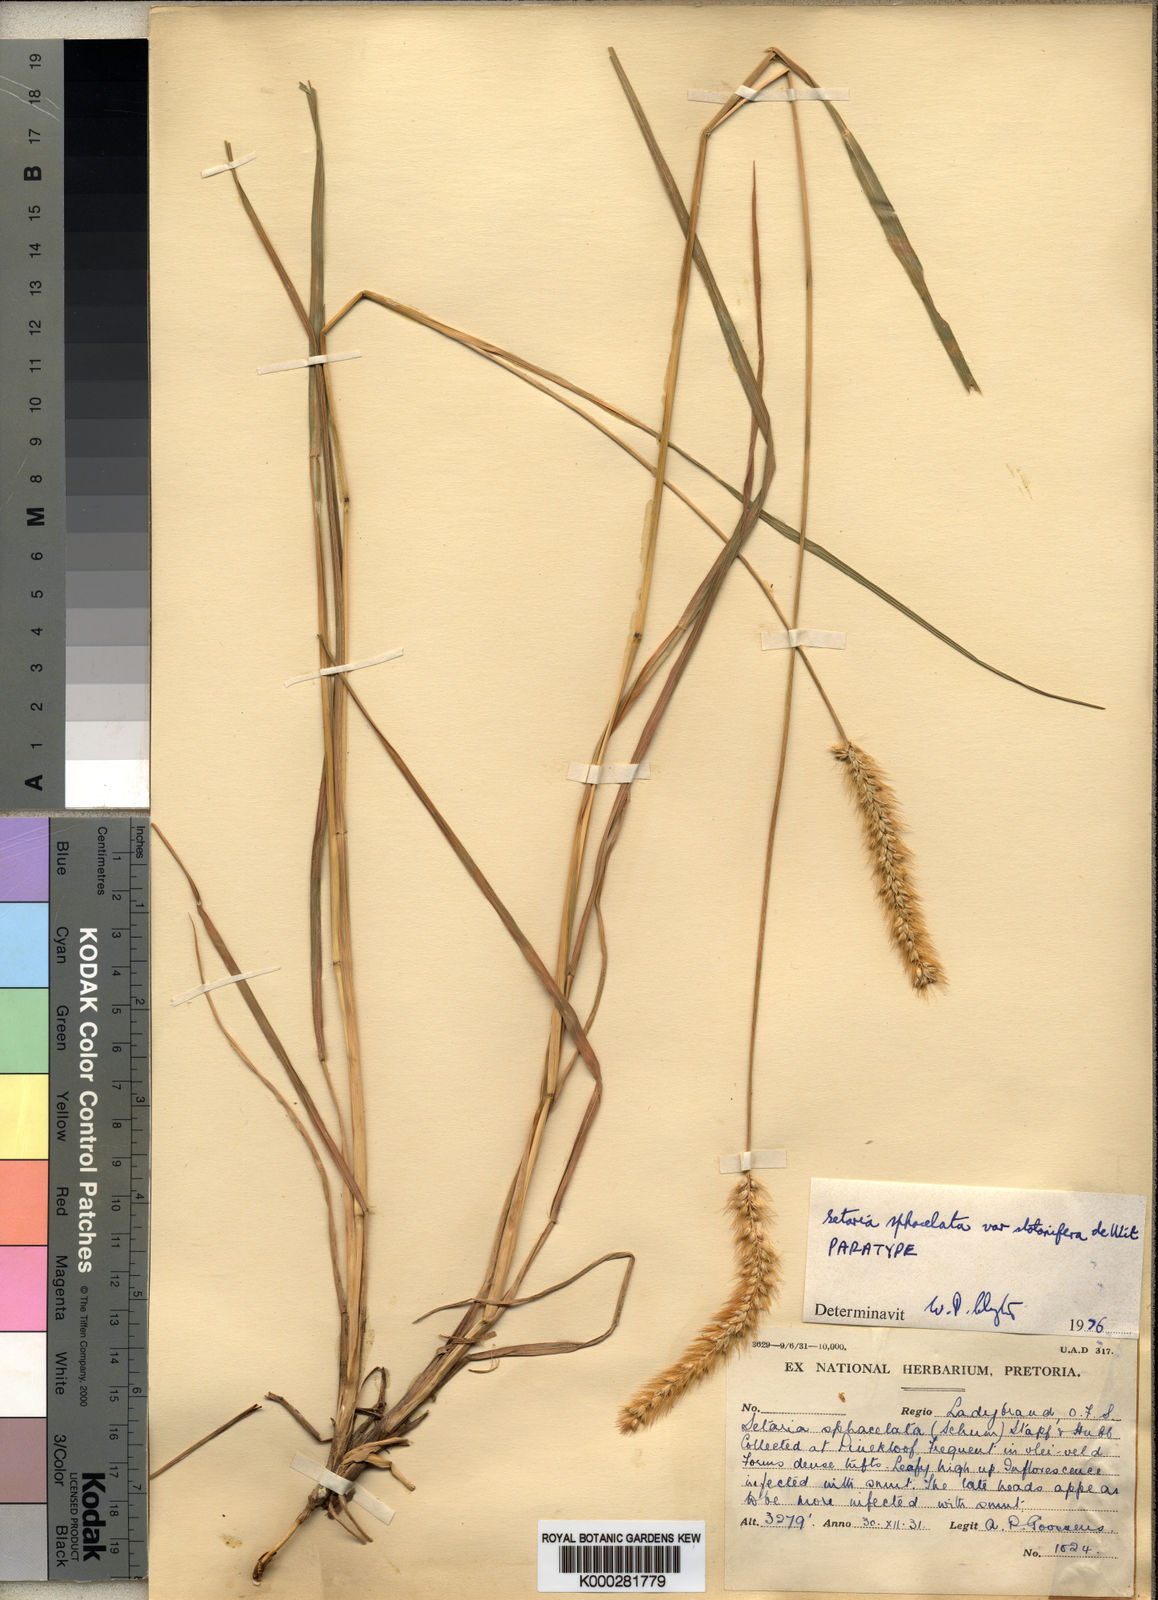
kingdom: Plantae
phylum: Tracheophyta
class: Liliopsida
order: Poales
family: Poaceae
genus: Setaria
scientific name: Setaria sphacelata
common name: African bristlegrass
